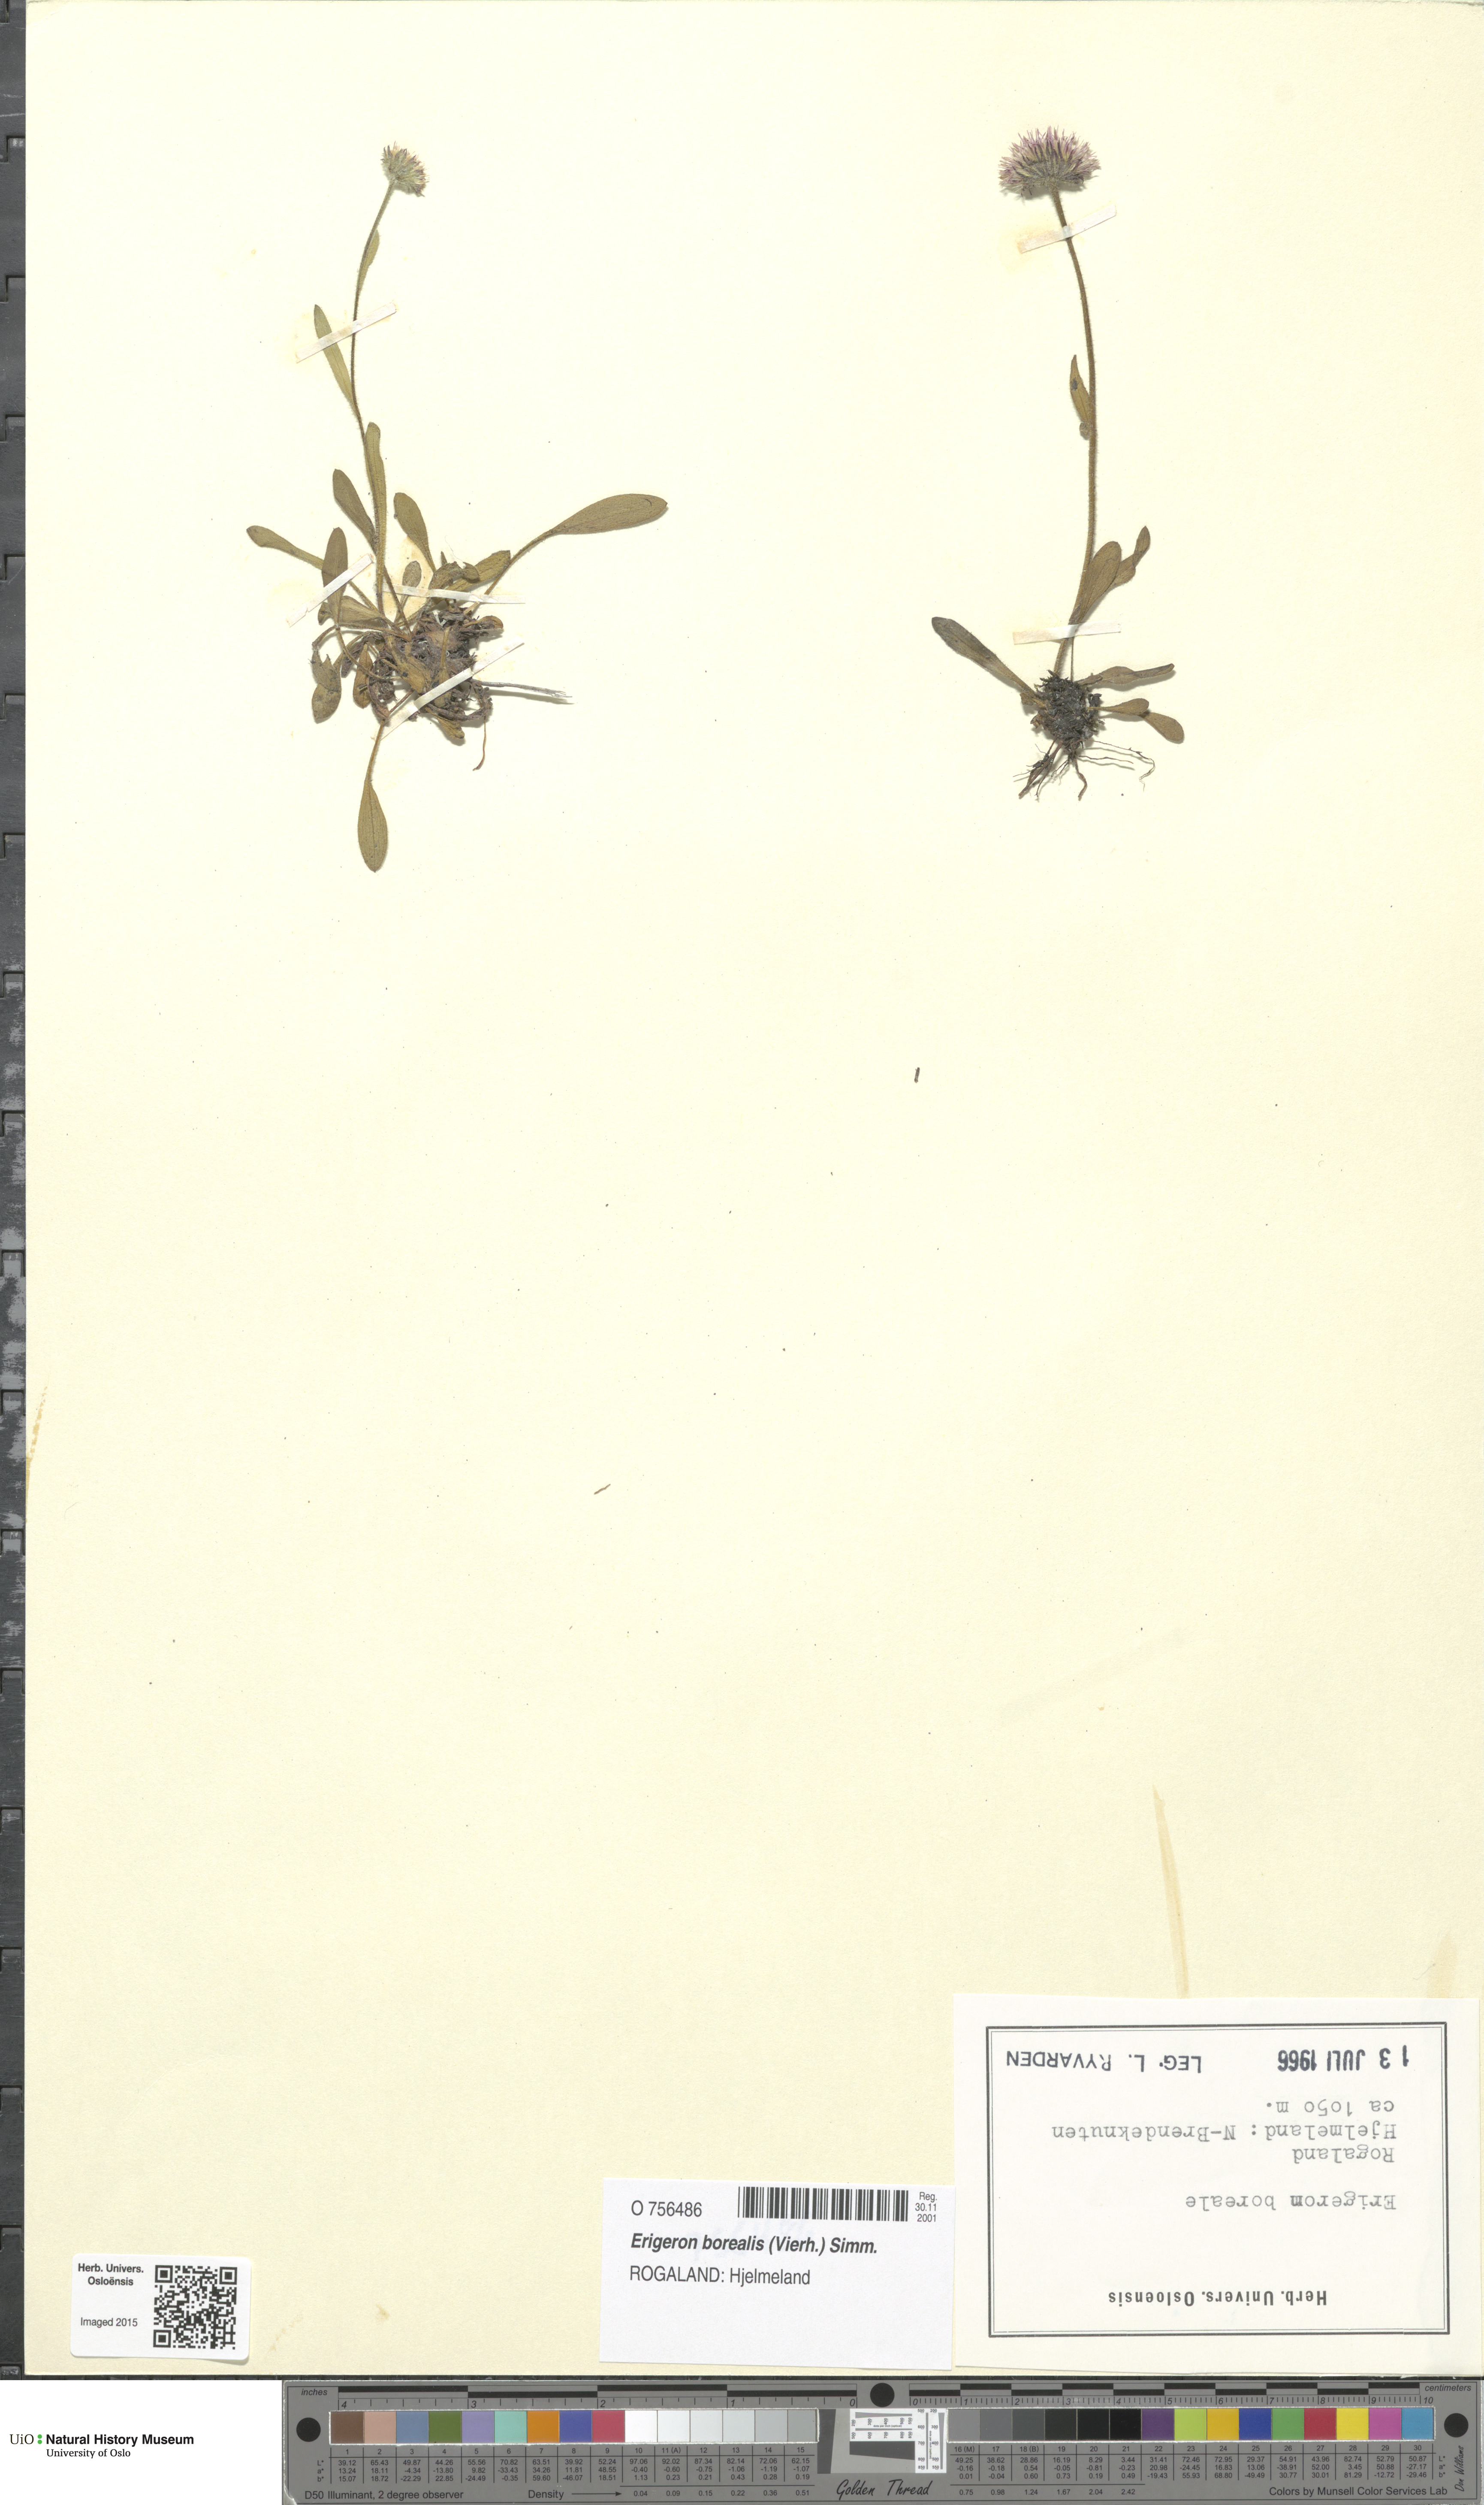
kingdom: Plantae
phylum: Tracheophyta
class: Magnoliopsida
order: Asterales
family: Asteraceae
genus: Erigeron
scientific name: Erigeron borealis
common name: Alpine fleabane
